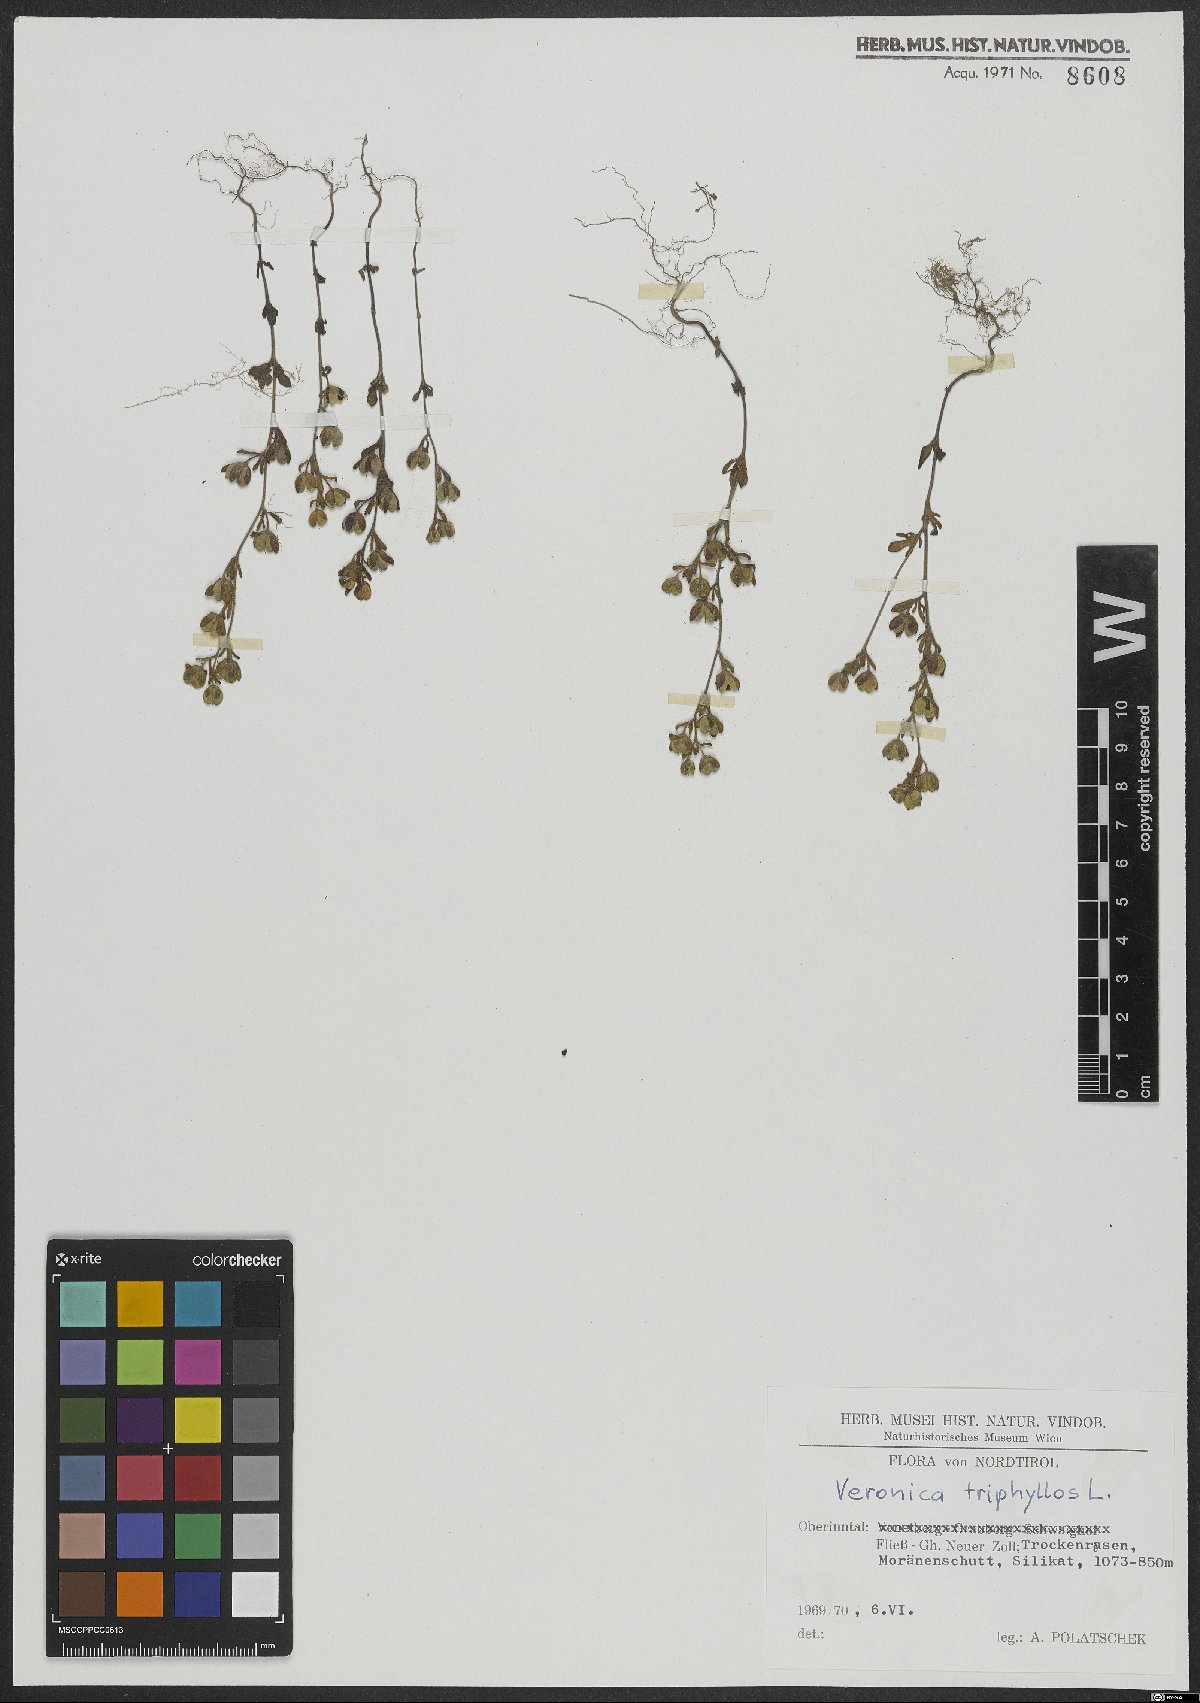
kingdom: Plantae
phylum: Tracheophyta
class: Magnoliopsida
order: Lamiales
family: Plantaginaceae
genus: Veronica
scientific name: Veronica triphyllos
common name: Fingered speedwell
